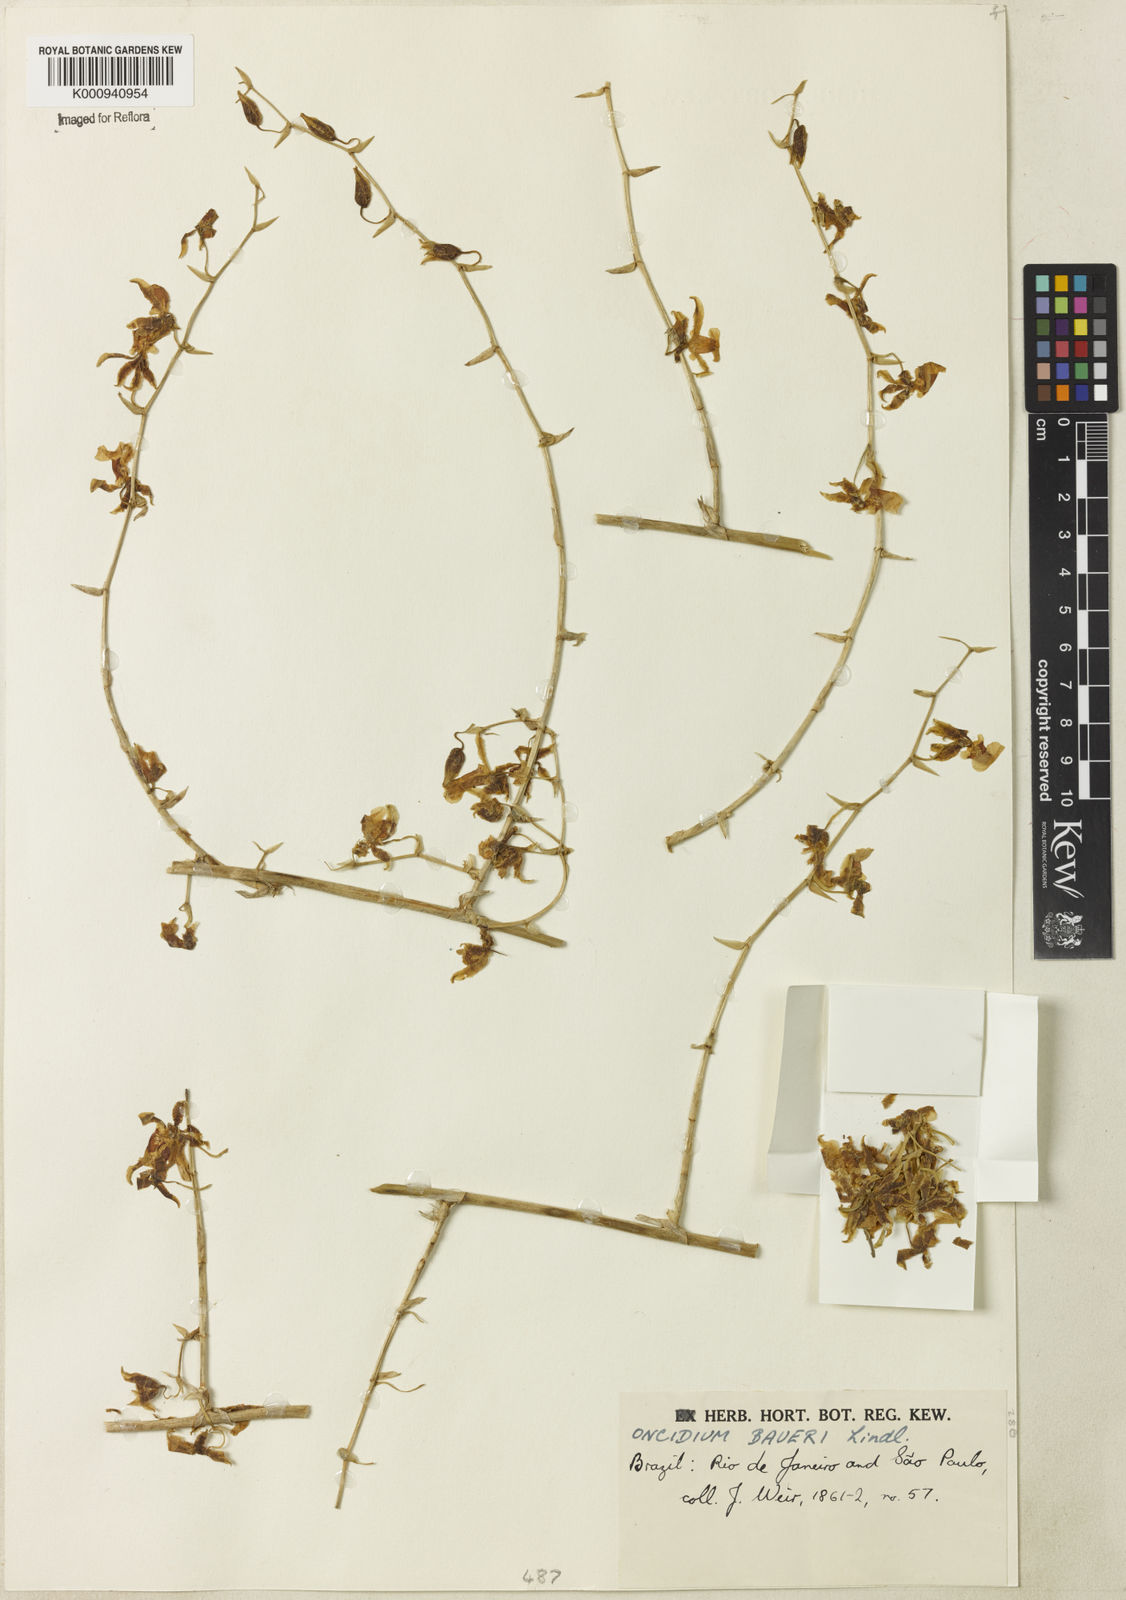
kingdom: Plantae
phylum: Tracheophyta
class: Liliopsida
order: Asparagales
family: Orchidaceae
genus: Oncidium
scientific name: Oncidium baueri
